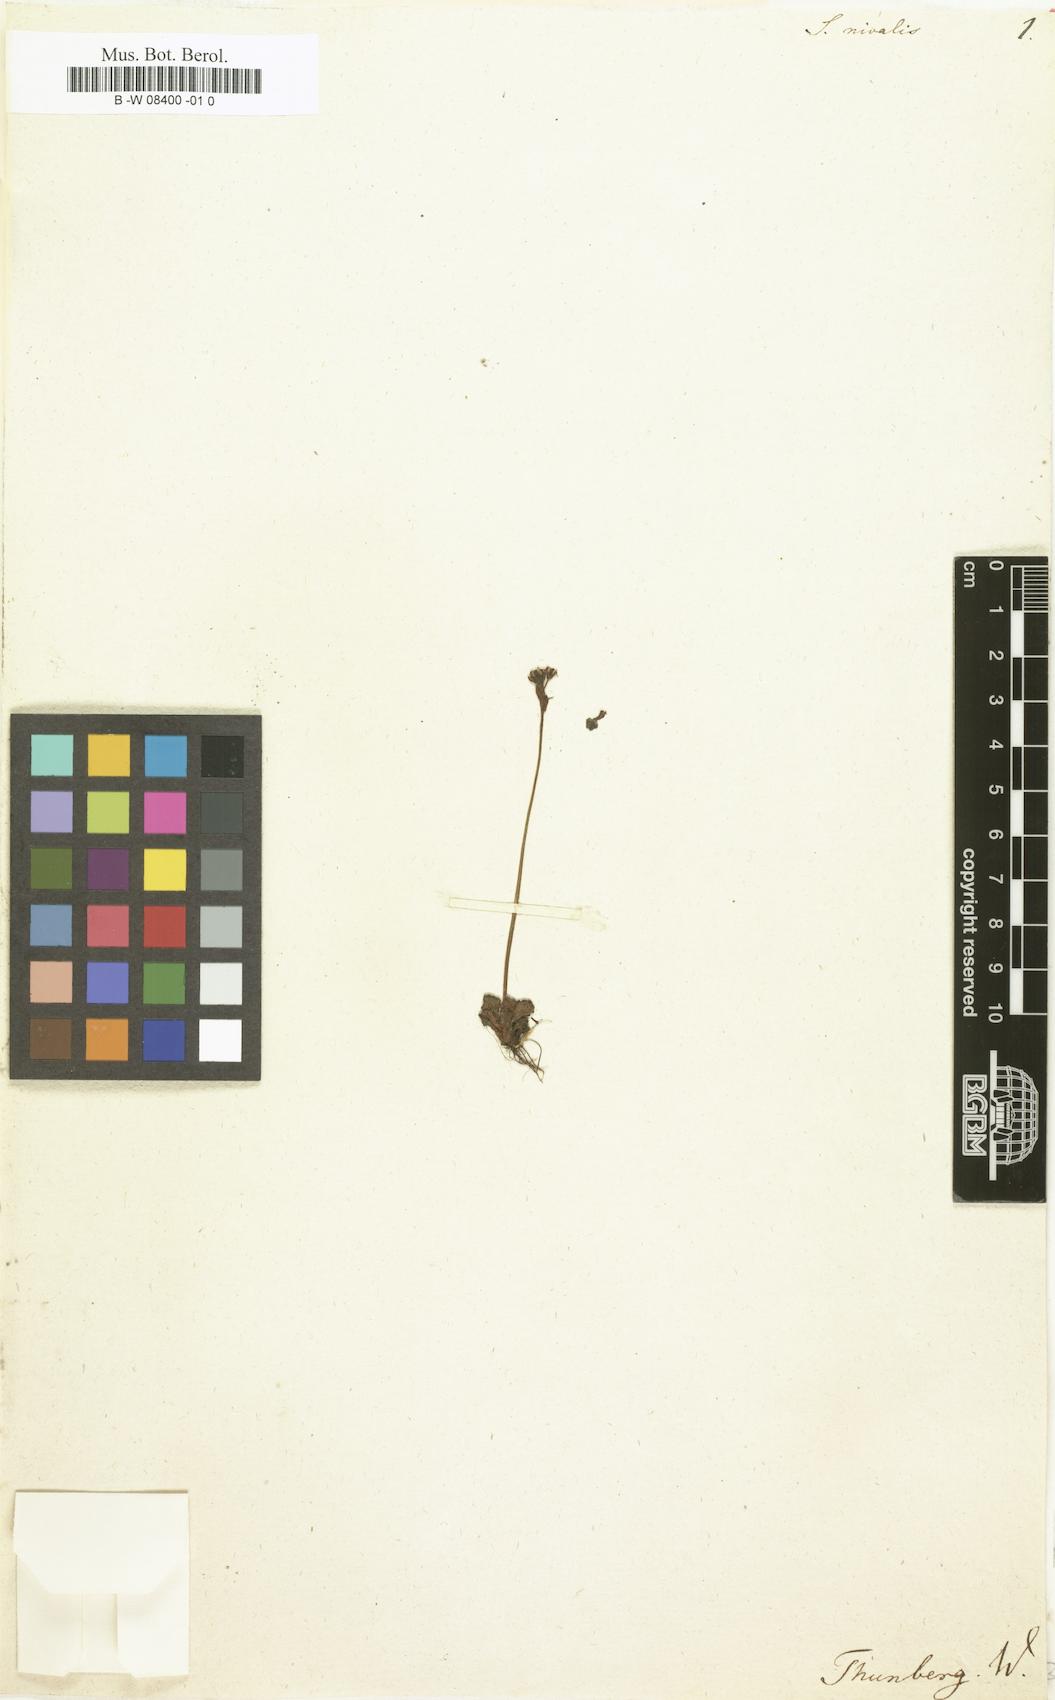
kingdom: Plantae
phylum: Tracheophyta
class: Magnoliopsida
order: Saxifragales
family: Saxifragaceae
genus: Micranthes
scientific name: Micranthes
